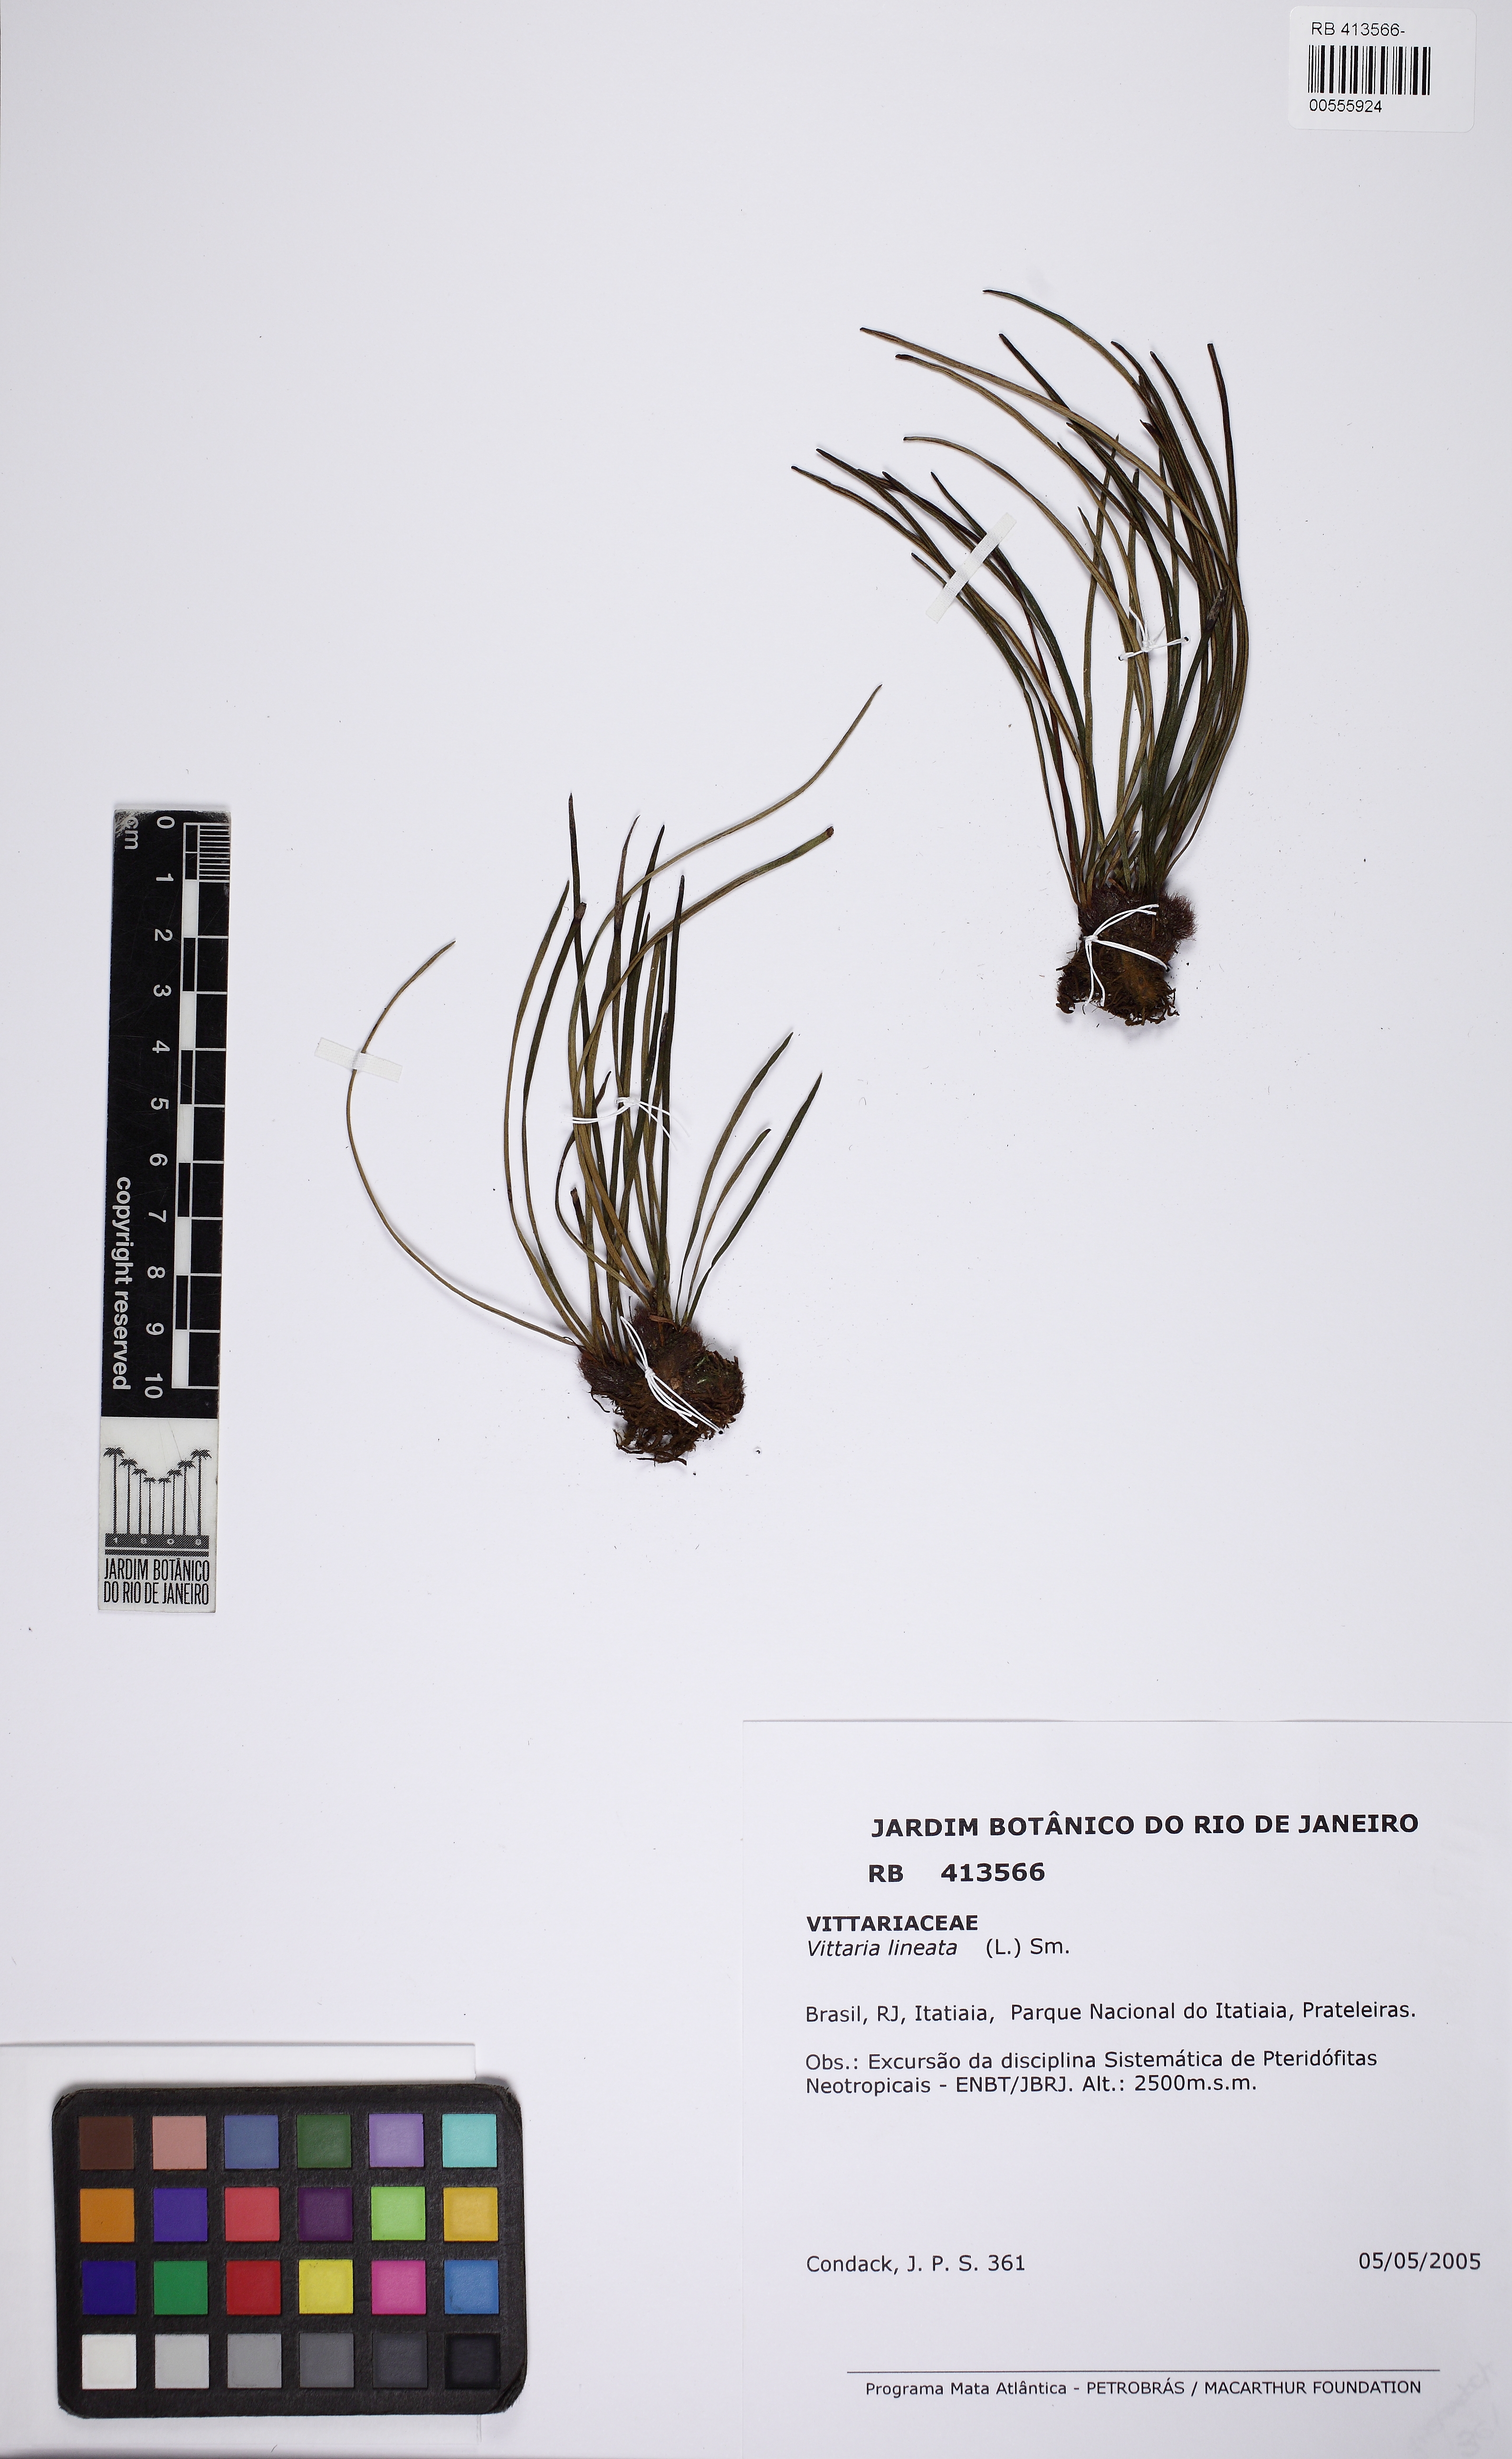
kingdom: Plantae
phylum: Tracheophyta
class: Polypodiopsida
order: Polypodiales
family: Pteridaceae
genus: Vittaria
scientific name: Vittaria lineata
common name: Shoestring fern
